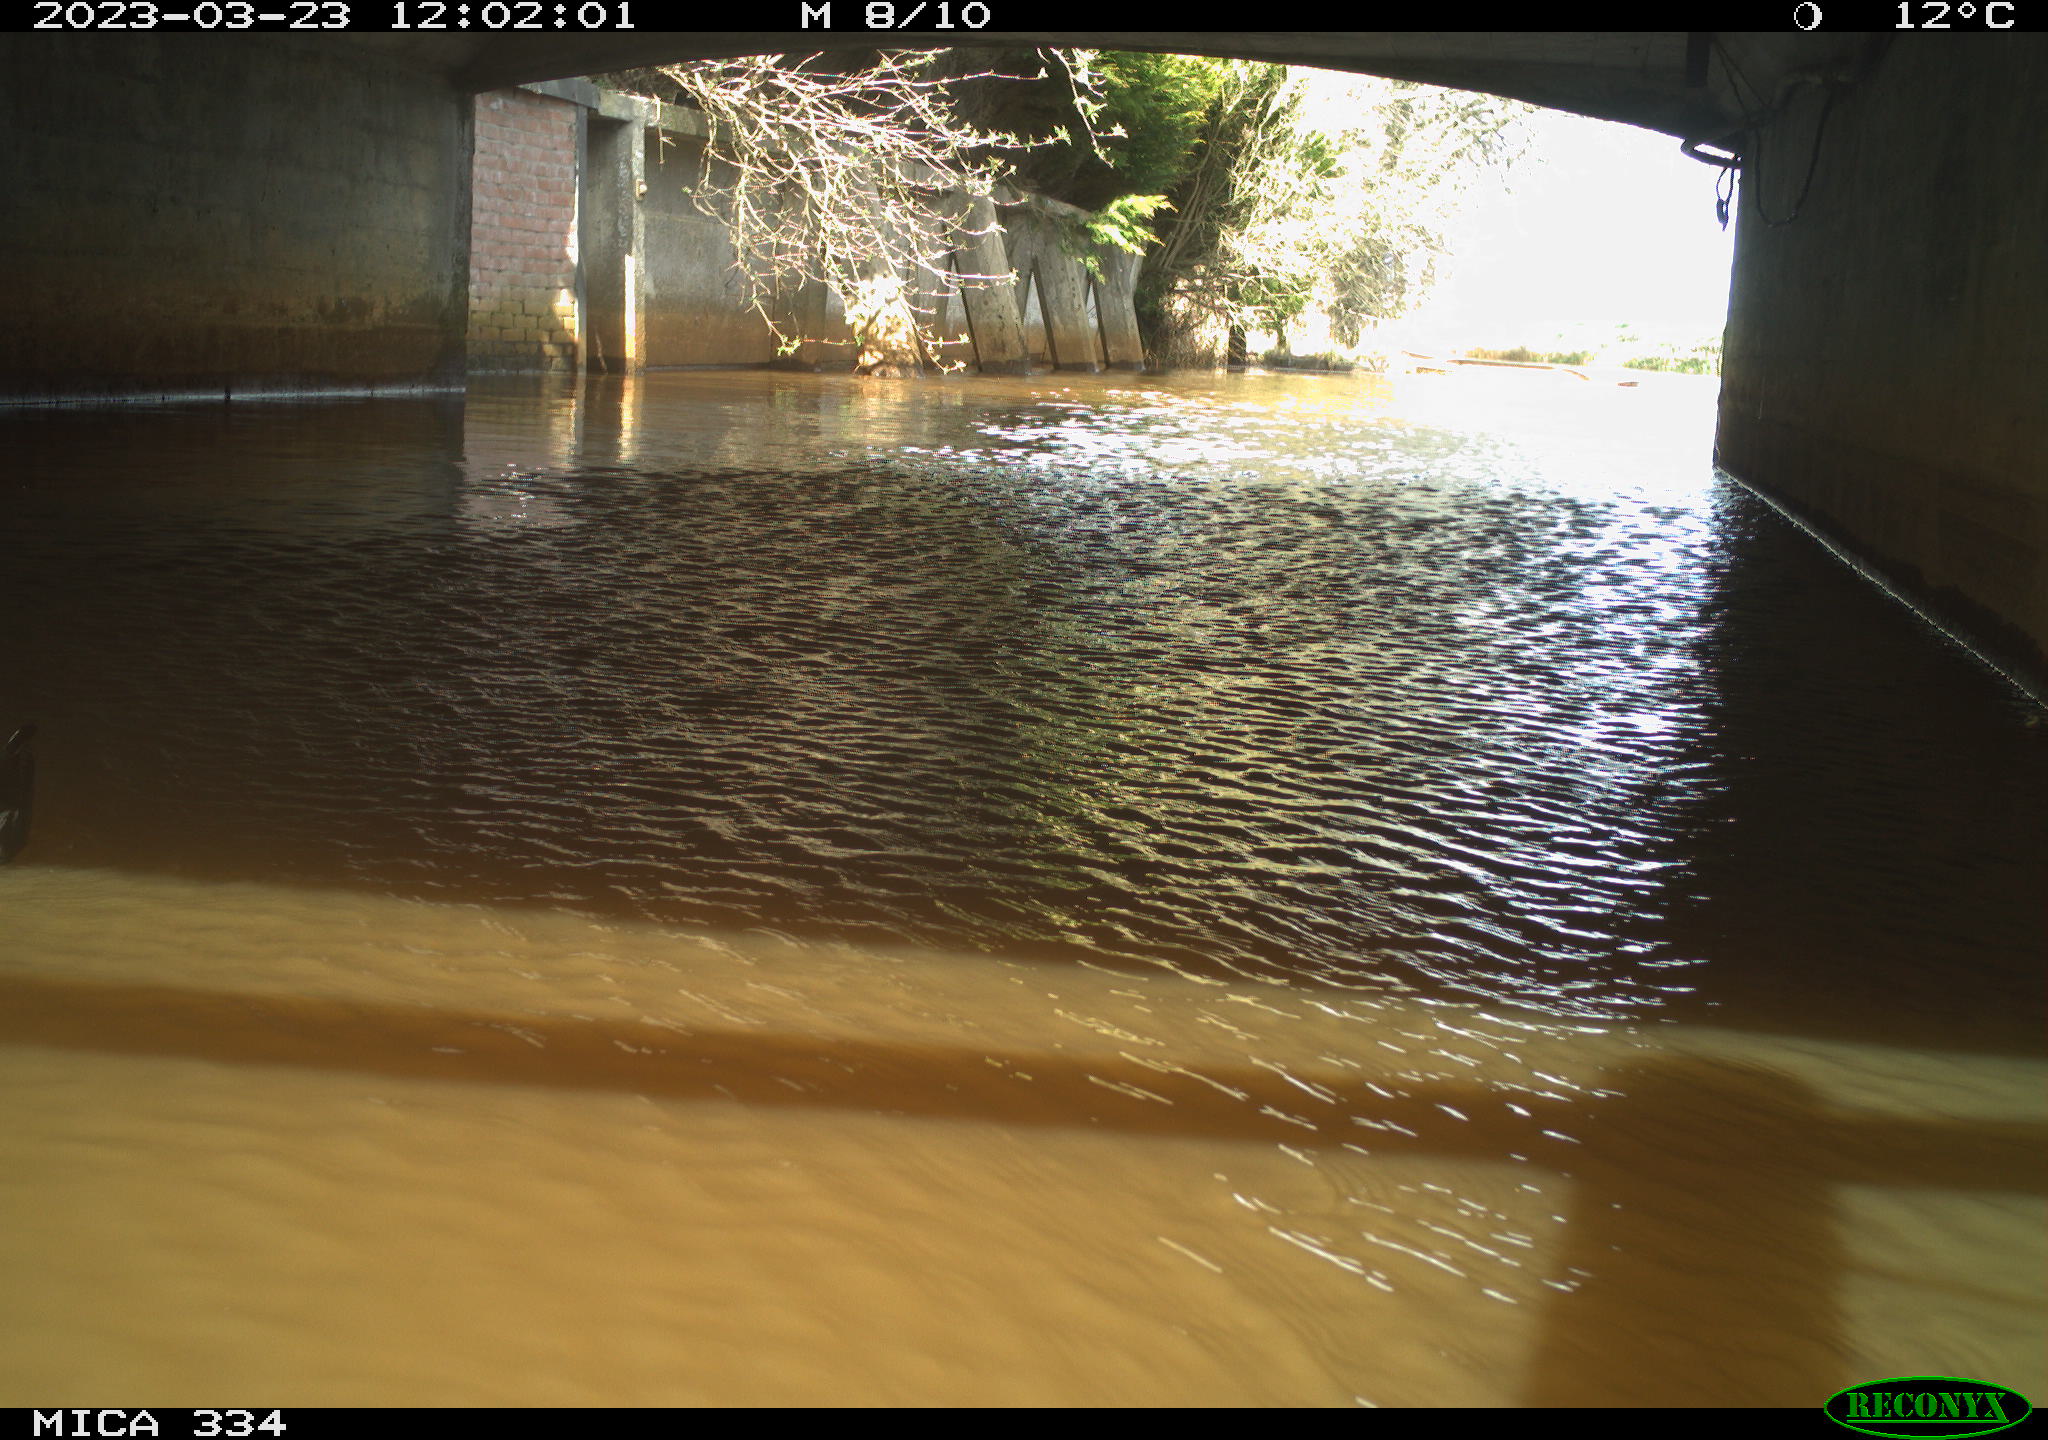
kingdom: Animalia
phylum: Chordata
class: Aves
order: Gruiformes
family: Rallidae
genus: Gallinula
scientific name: Gallinula chloropus
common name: Common moorhen
